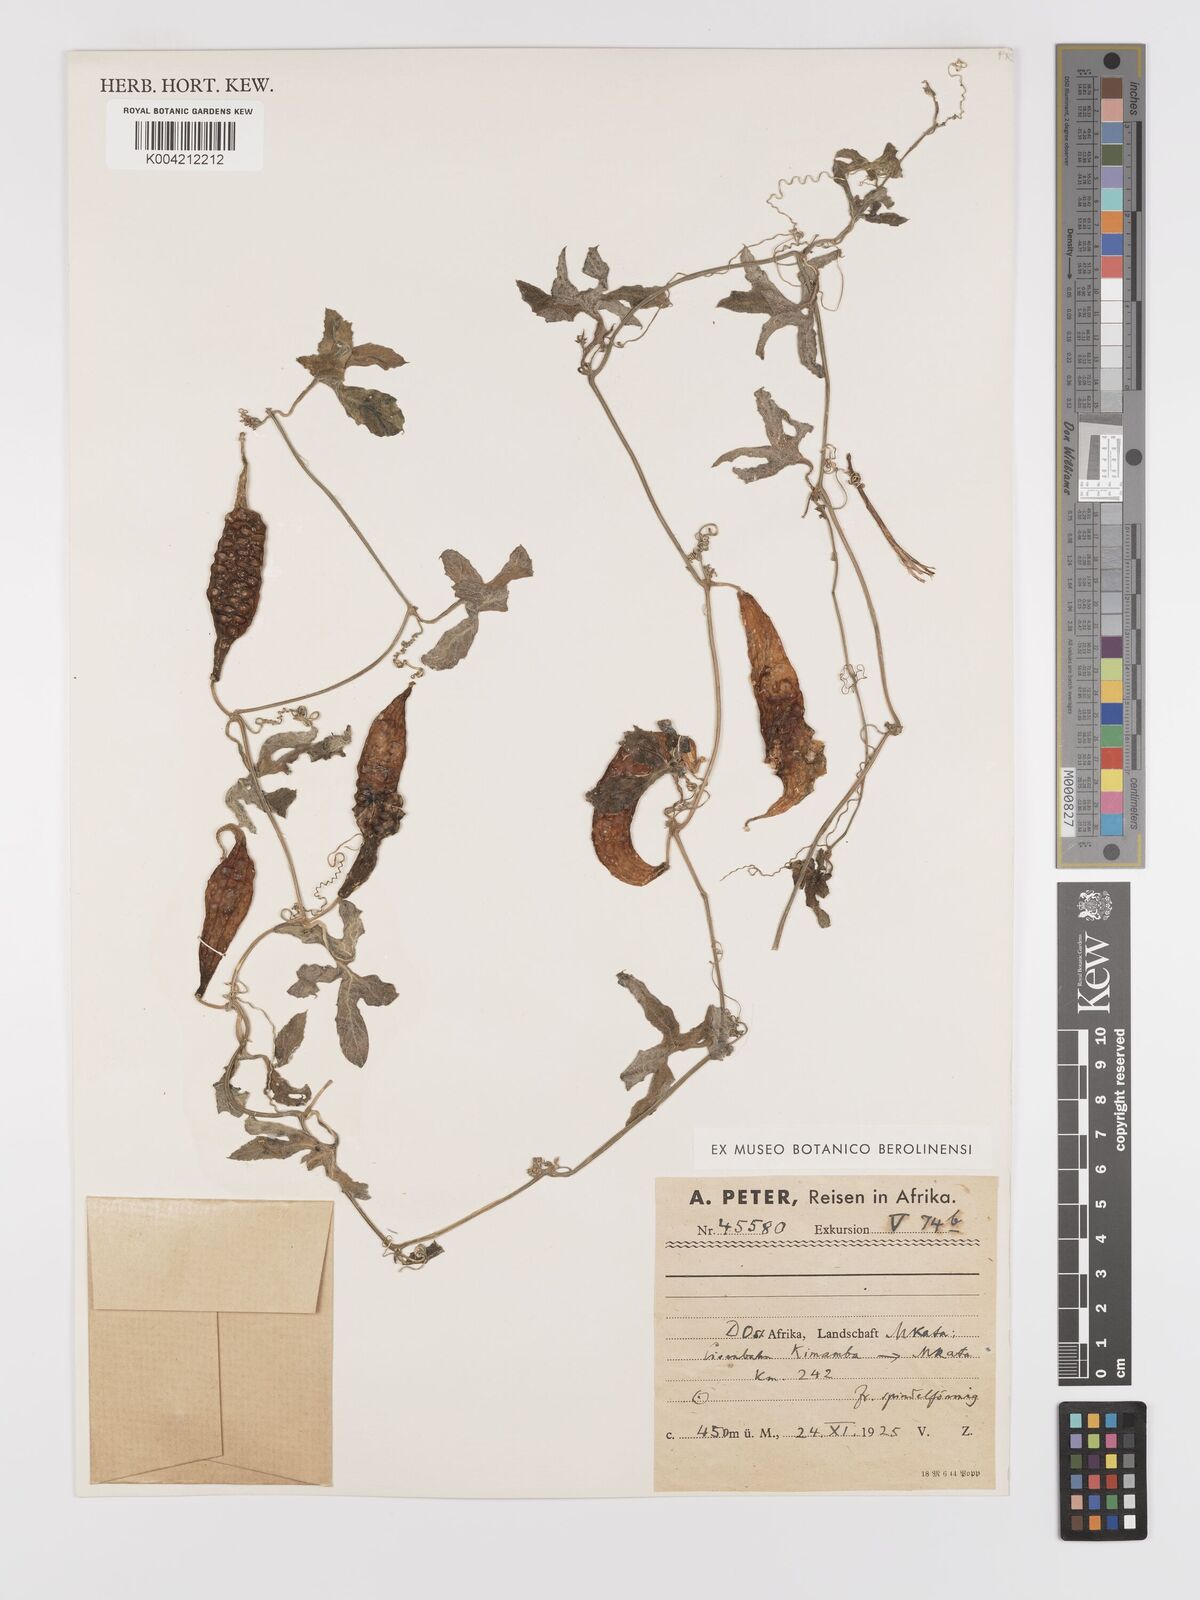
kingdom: Plantae
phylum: Tracheophyta
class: Magnoliopsida
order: Cucurbitales
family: Cucurbitaceae
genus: Kedrostis
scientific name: Kedrostis abdallae
